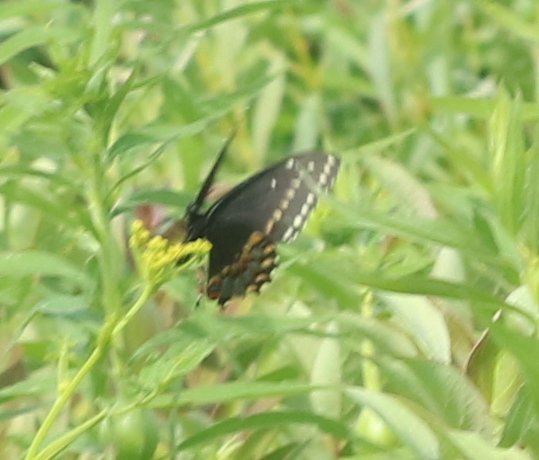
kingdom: Animalia
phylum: Arthropoda
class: Insecta
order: Lepidoptera
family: Papilionidae
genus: Papilio
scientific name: Papilio polyxenes
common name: Black Swallowtail
